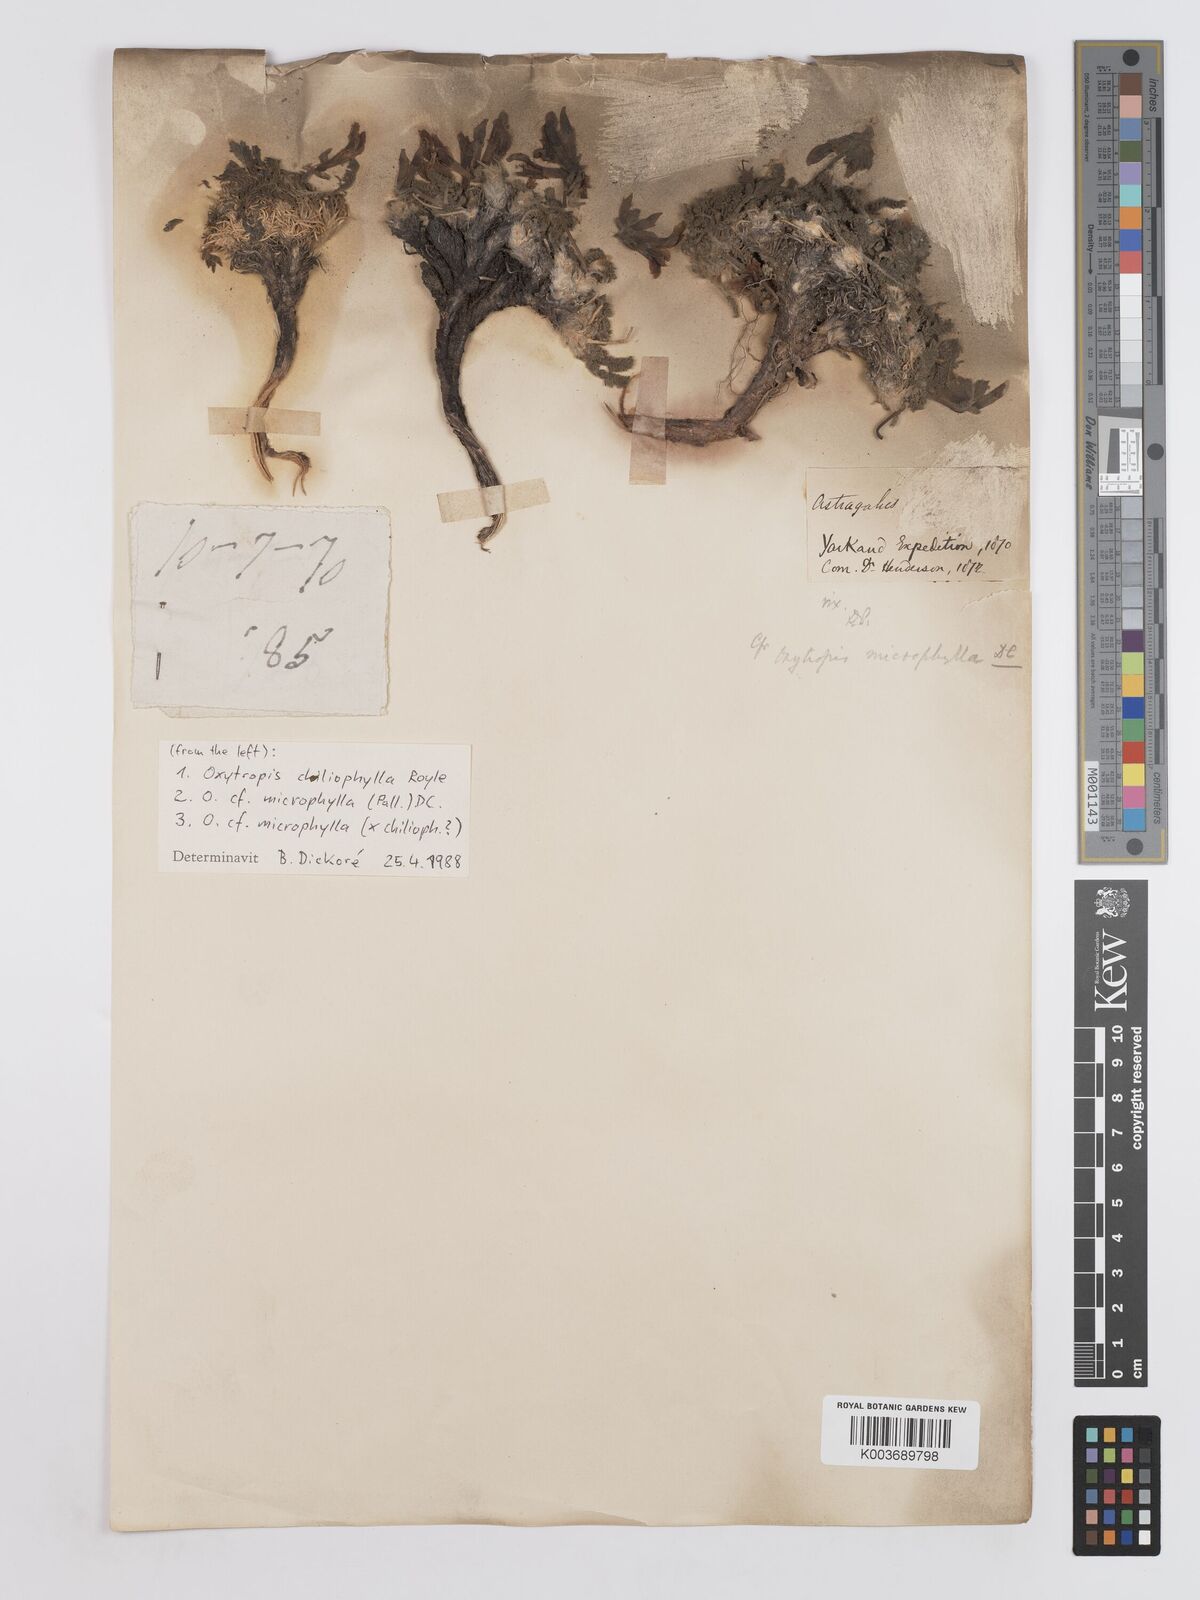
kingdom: Plantae
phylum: Tracheophyta
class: Magnoliopsida
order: Fabales
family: Fabaceae
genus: Oxytropis
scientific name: Oxytropis chiliophylla
